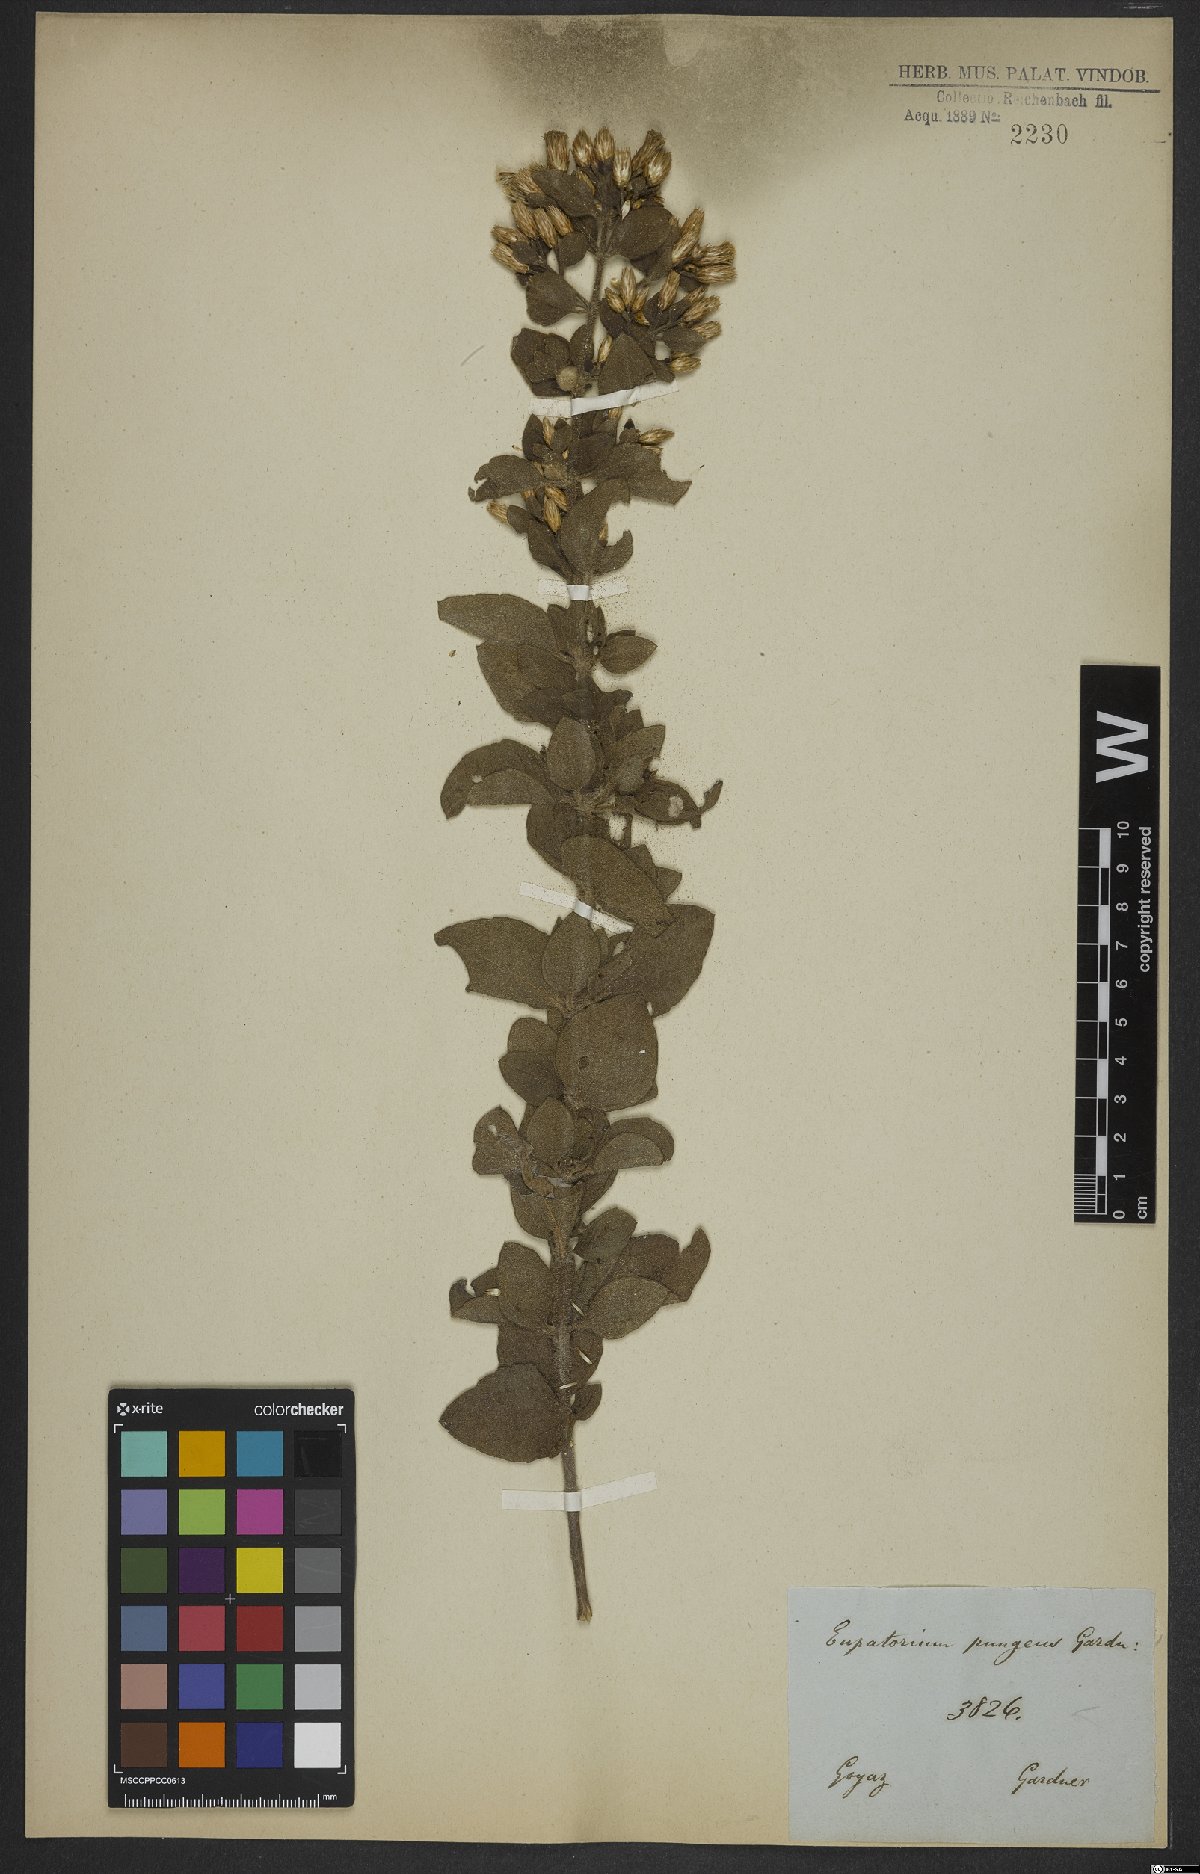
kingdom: Plantae
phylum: Tracheophyta
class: Magnoliopsida
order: Asterales
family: Asteraceae
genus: Chromolaena
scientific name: Chromolaena oxylepis
